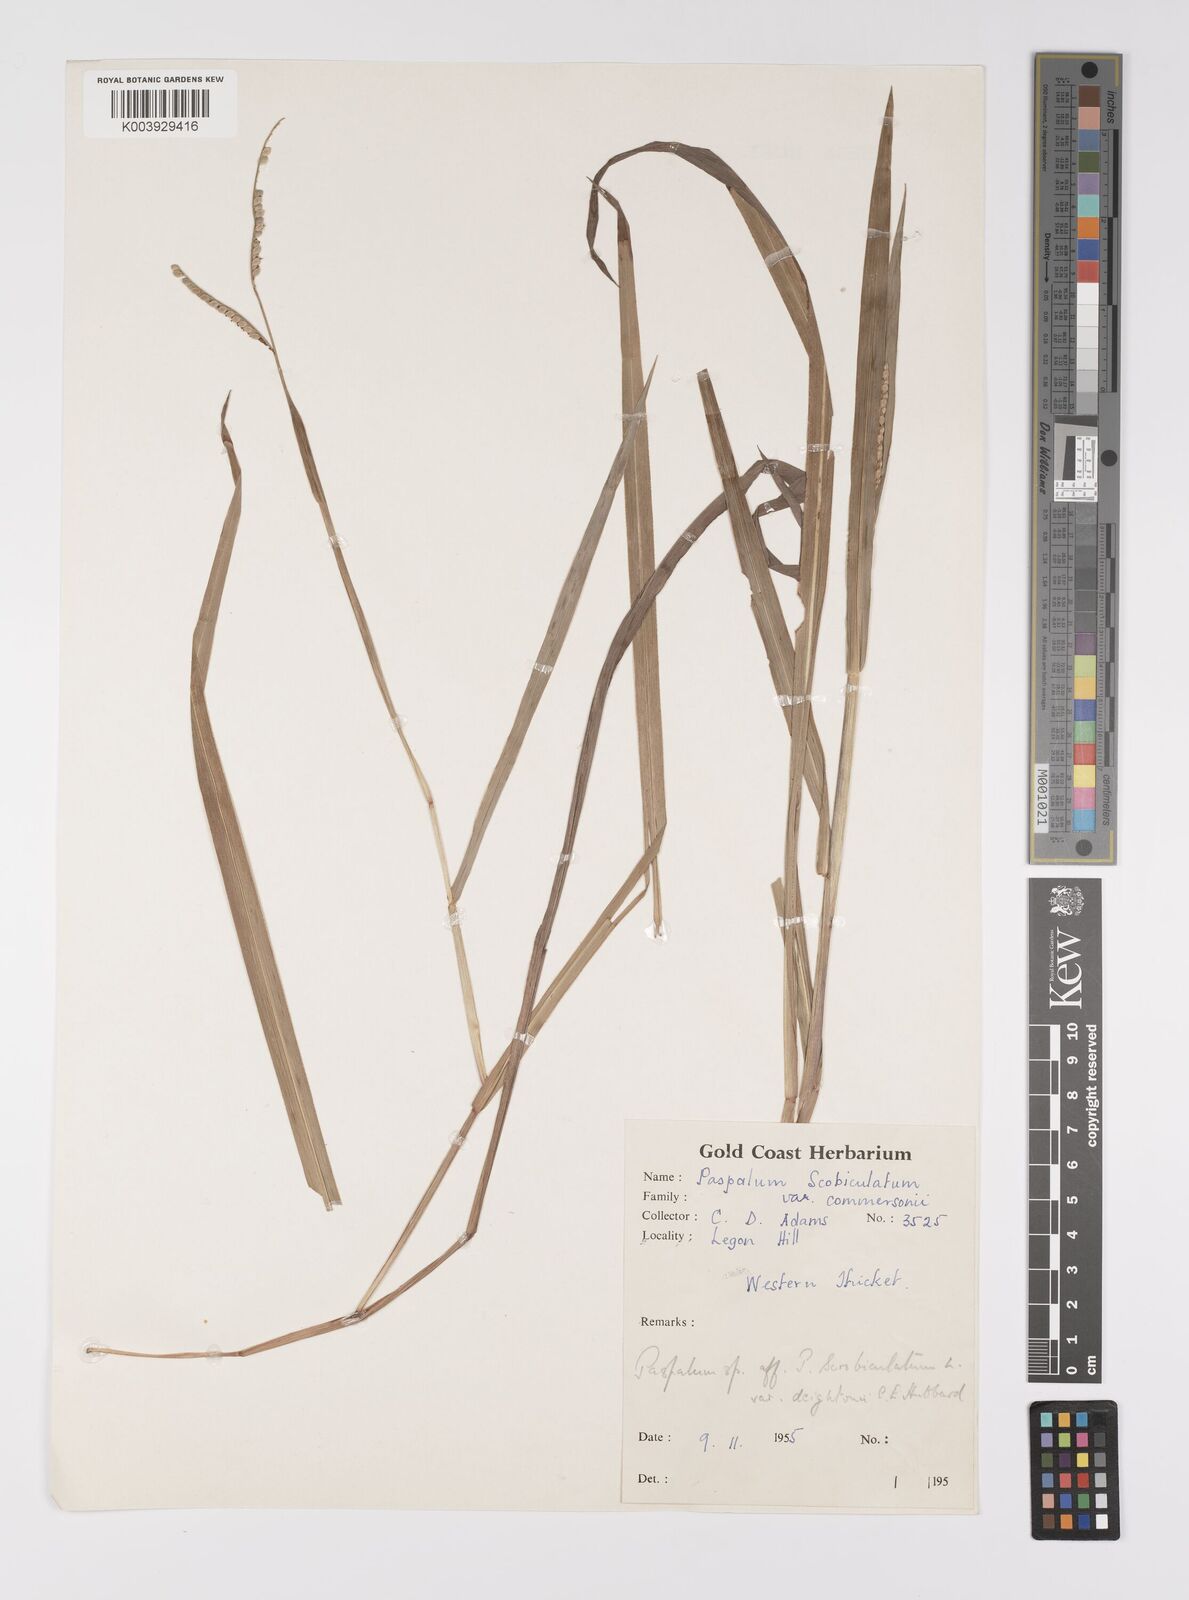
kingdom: Plantae
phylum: Tracheophyta
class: Liliopsida
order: Poales
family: Poaceae
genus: Paspalum
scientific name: Paspalum scrobiculatum
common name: Kodo millet
